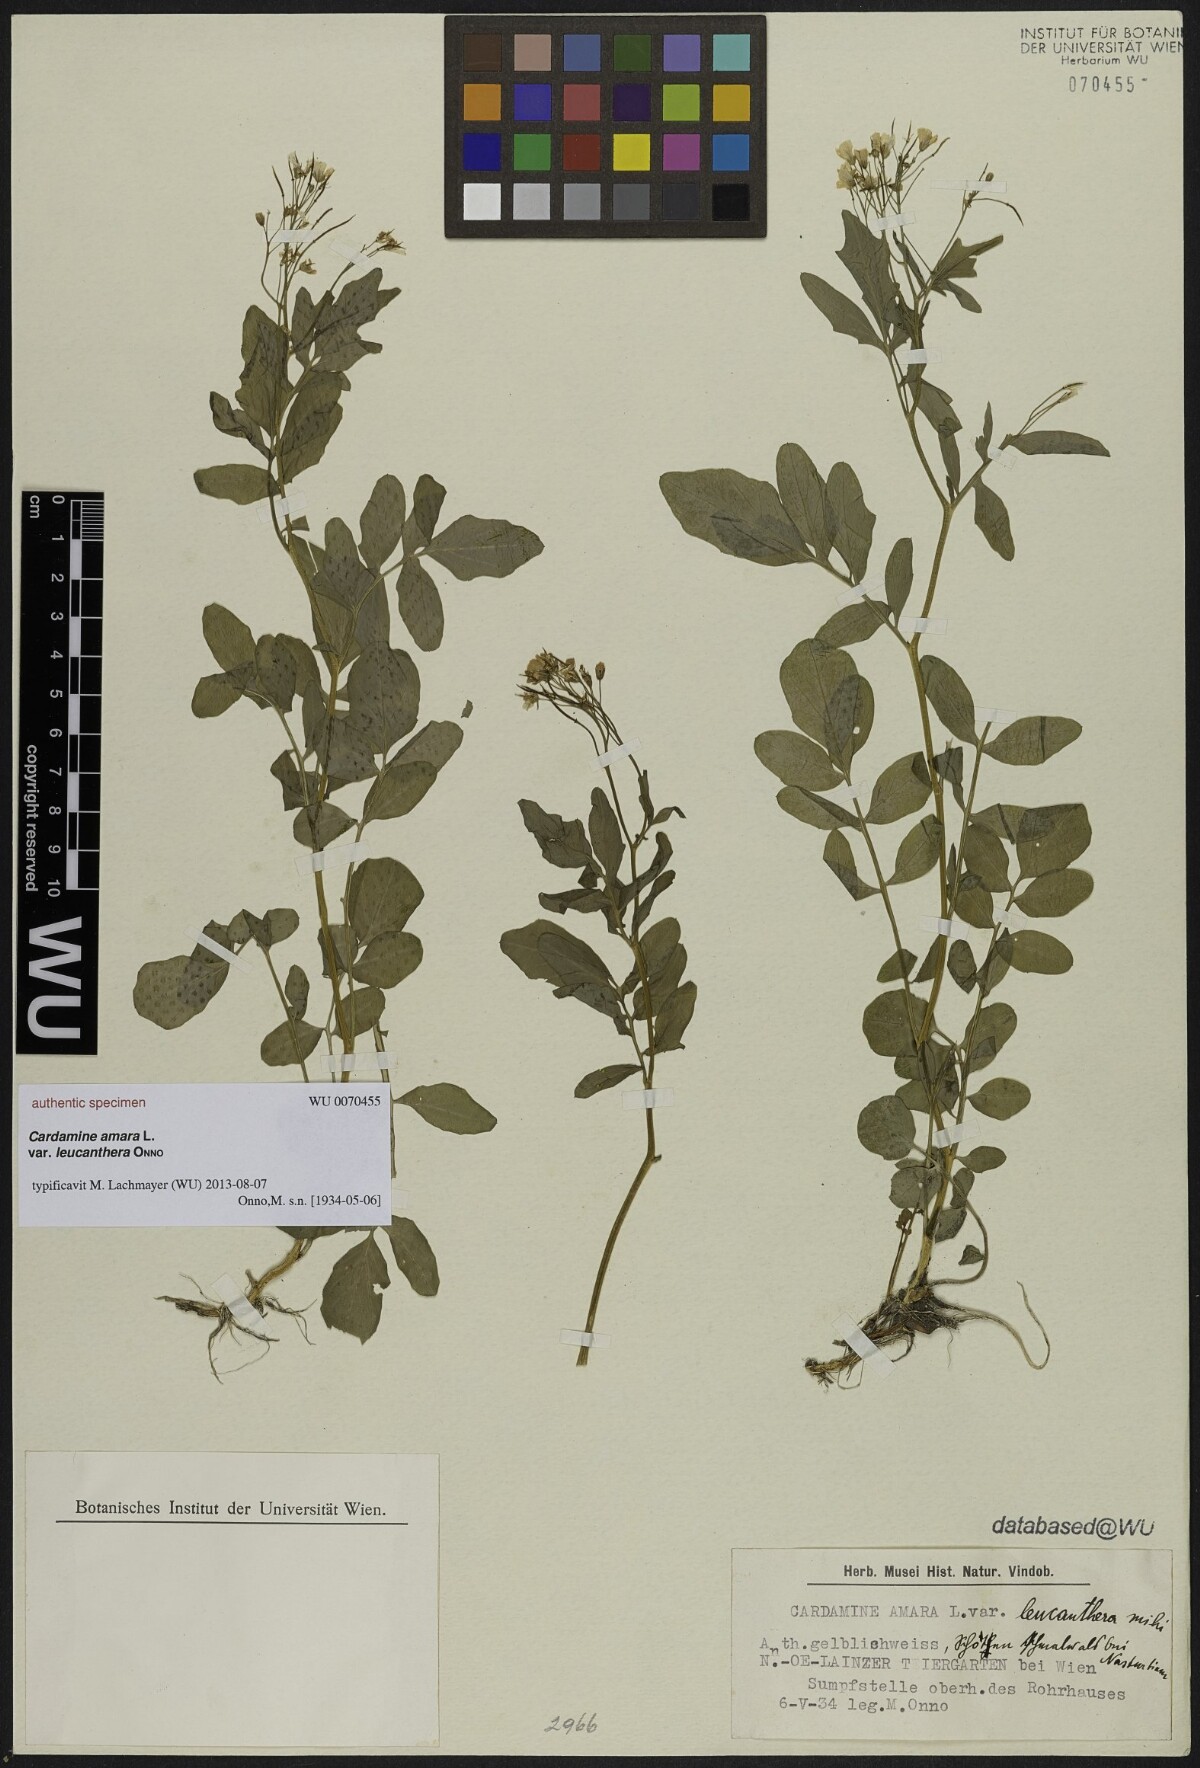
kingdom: Plantae
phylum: Tracheophyta
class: Magnoliopsida
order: Brassicales
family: Brassicaceae
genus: Cardamine
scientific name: Cardamine amara
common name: Large bitter-cress
